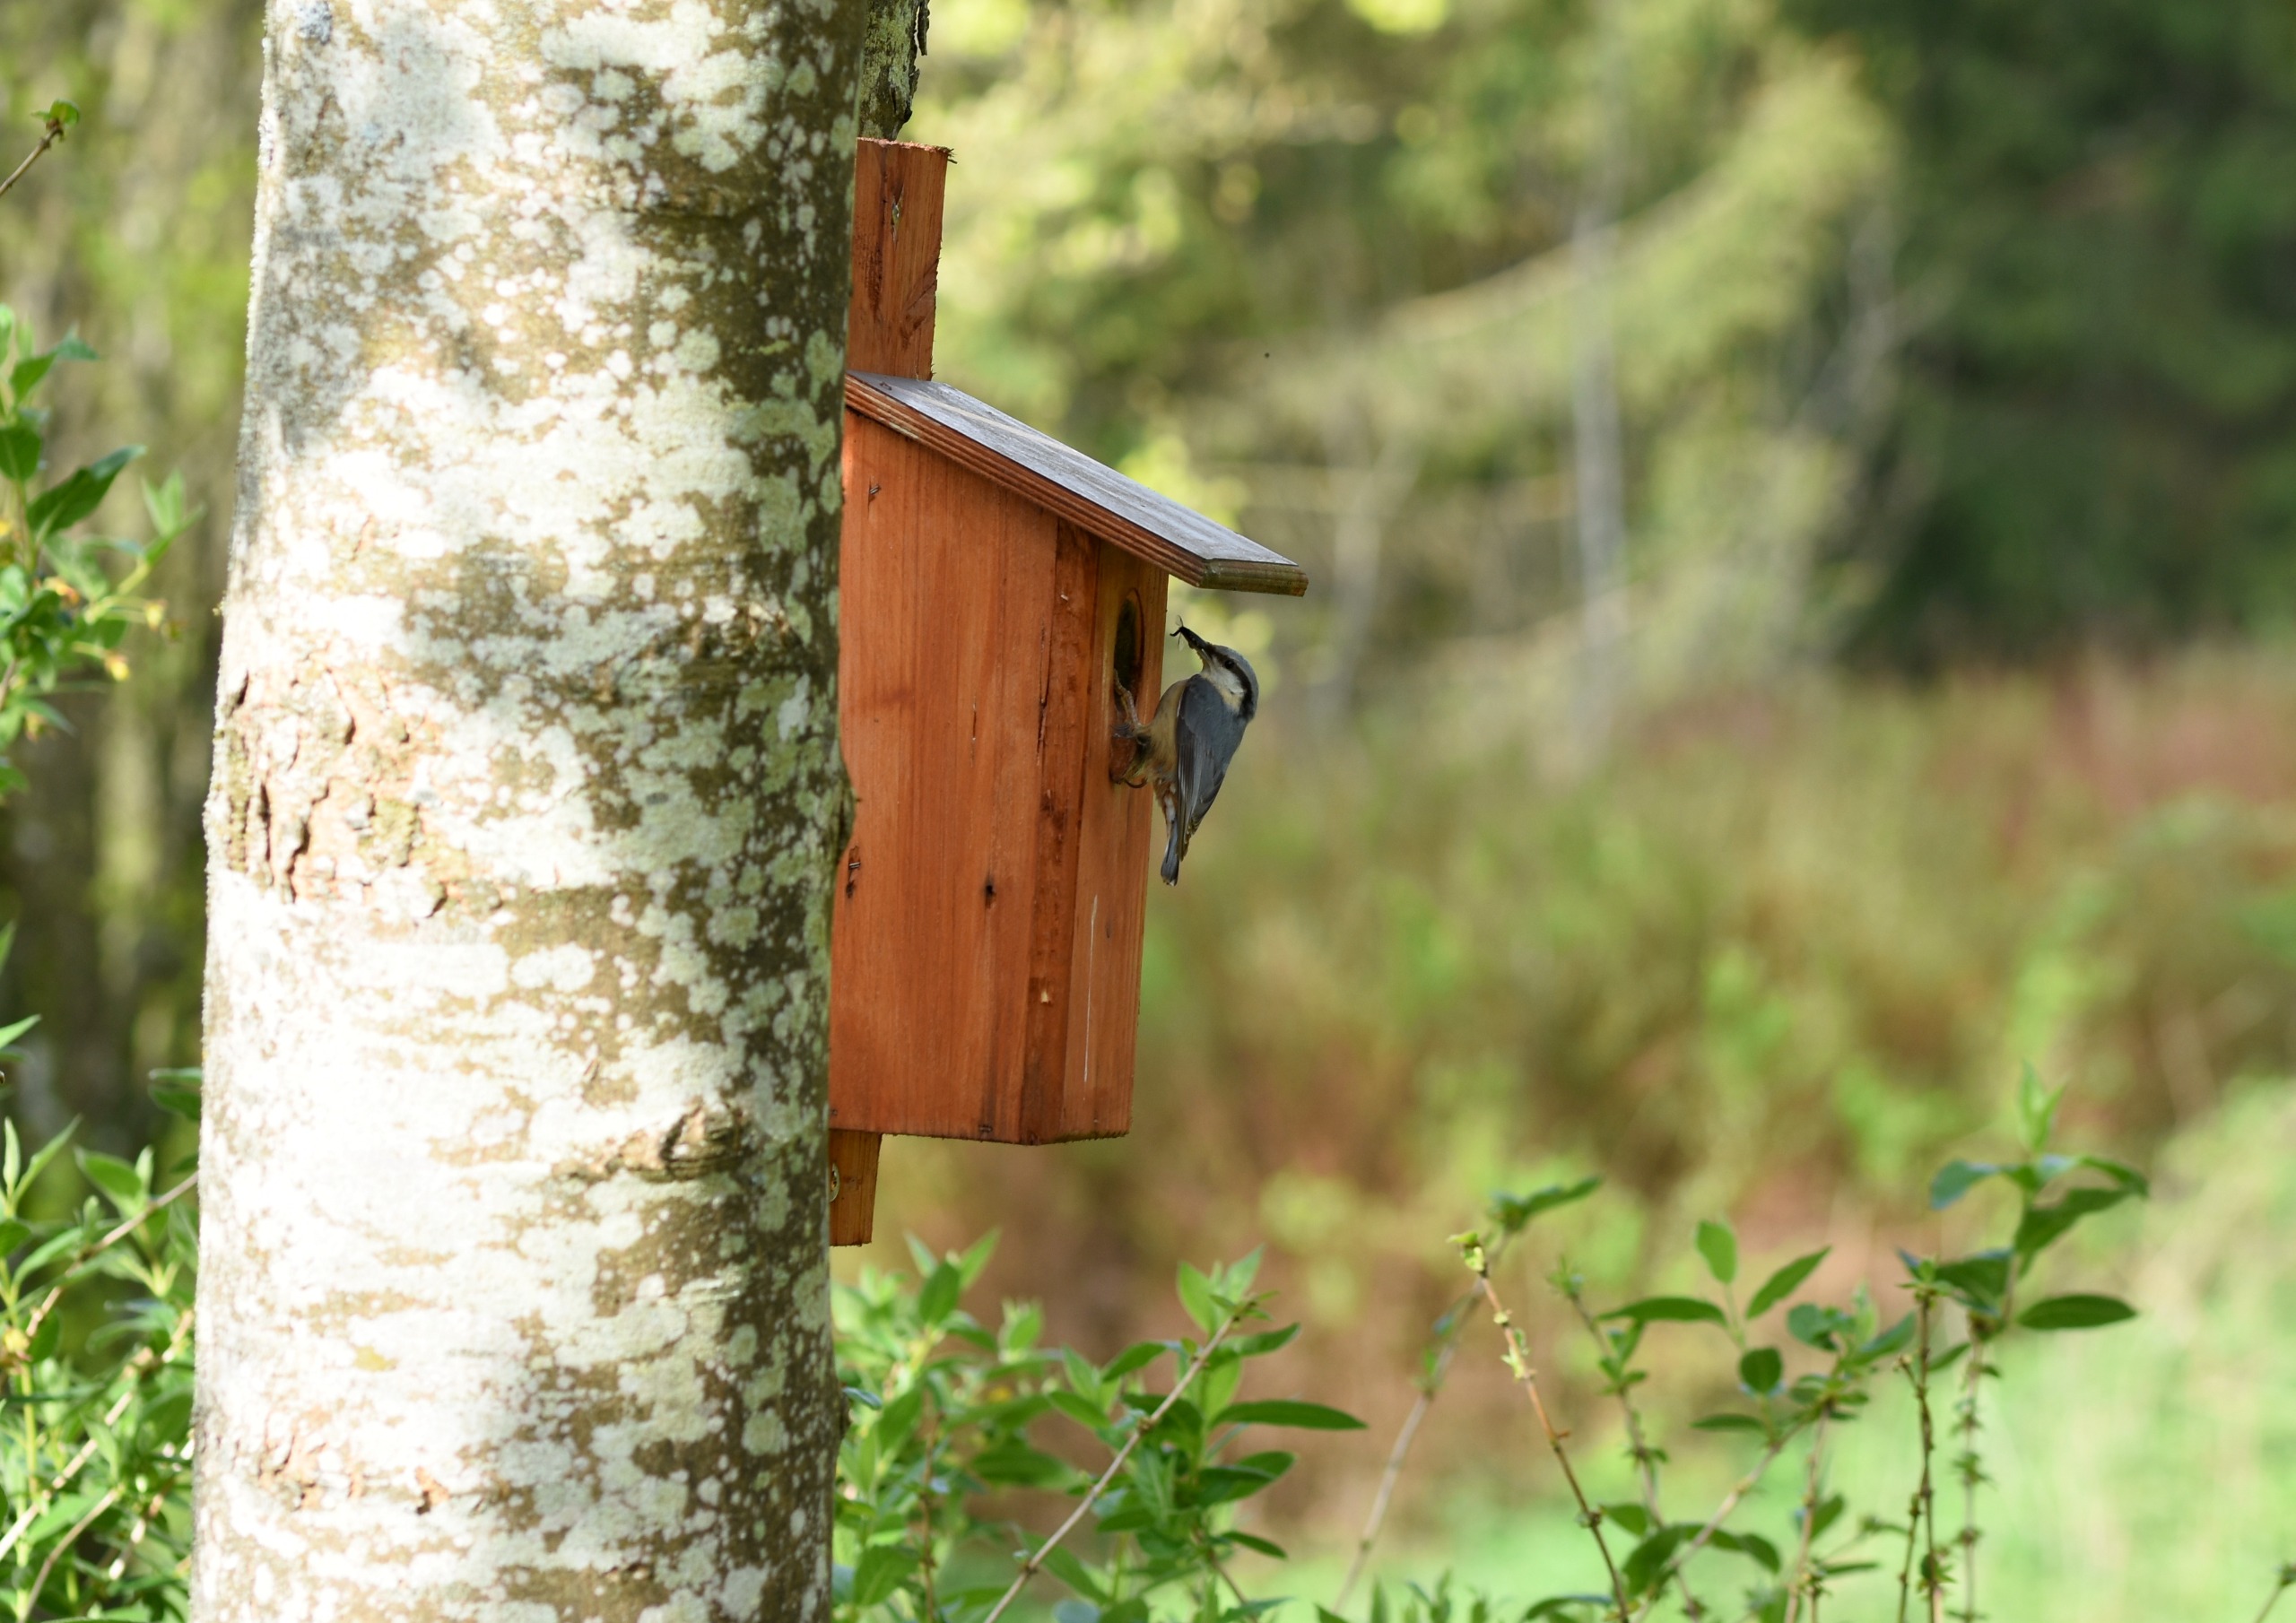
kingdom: Animalia
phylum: Chordata
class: Aves
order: Passeriformes
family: Sittidae
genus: Sitta
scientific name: Sitta europaea
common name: Spætmejse
